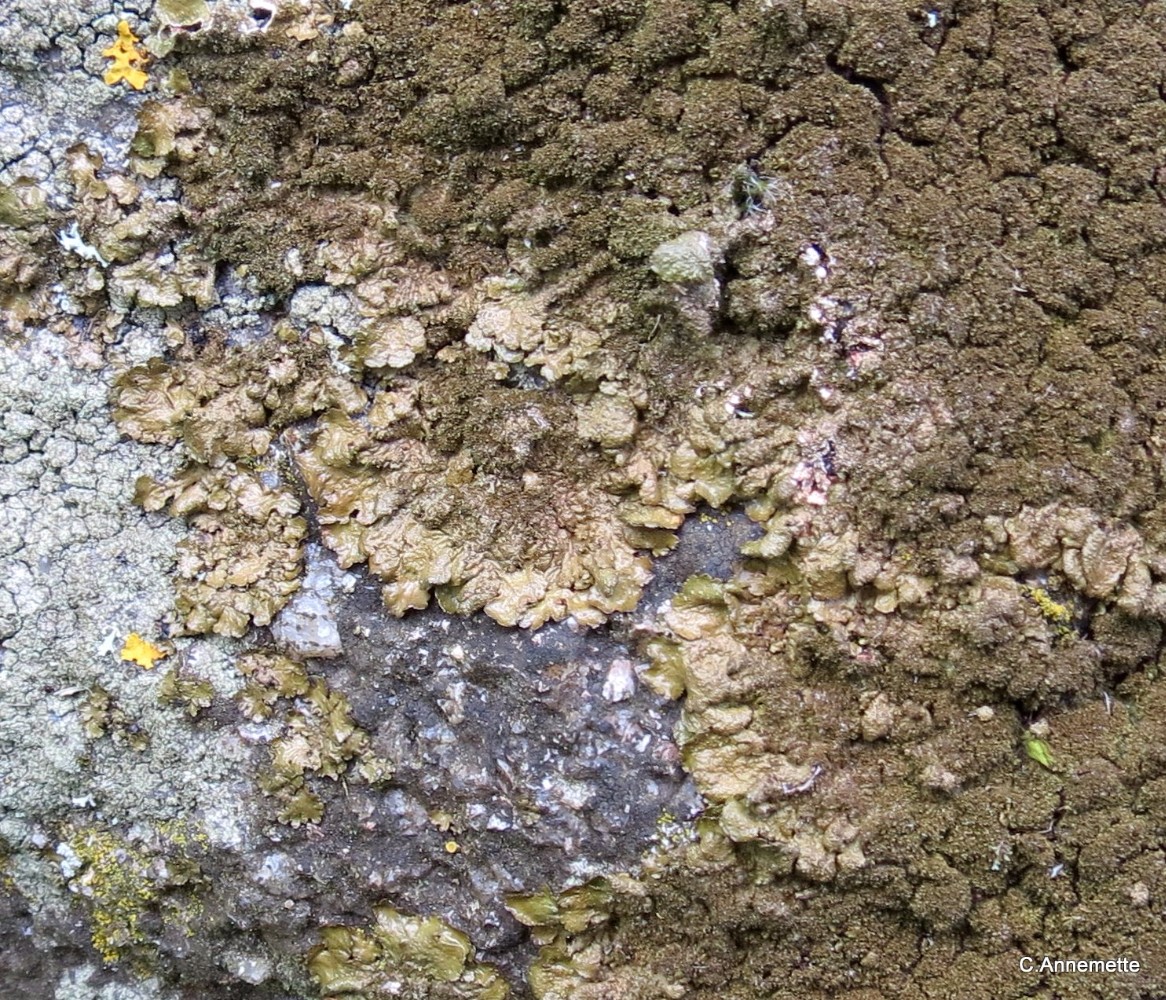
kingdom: Fungi
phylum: Ascomycota
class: Lecanoromycetes
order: Lecanorales
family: Parmeliaceae
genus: Melanelixia
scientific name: Melanelixia
